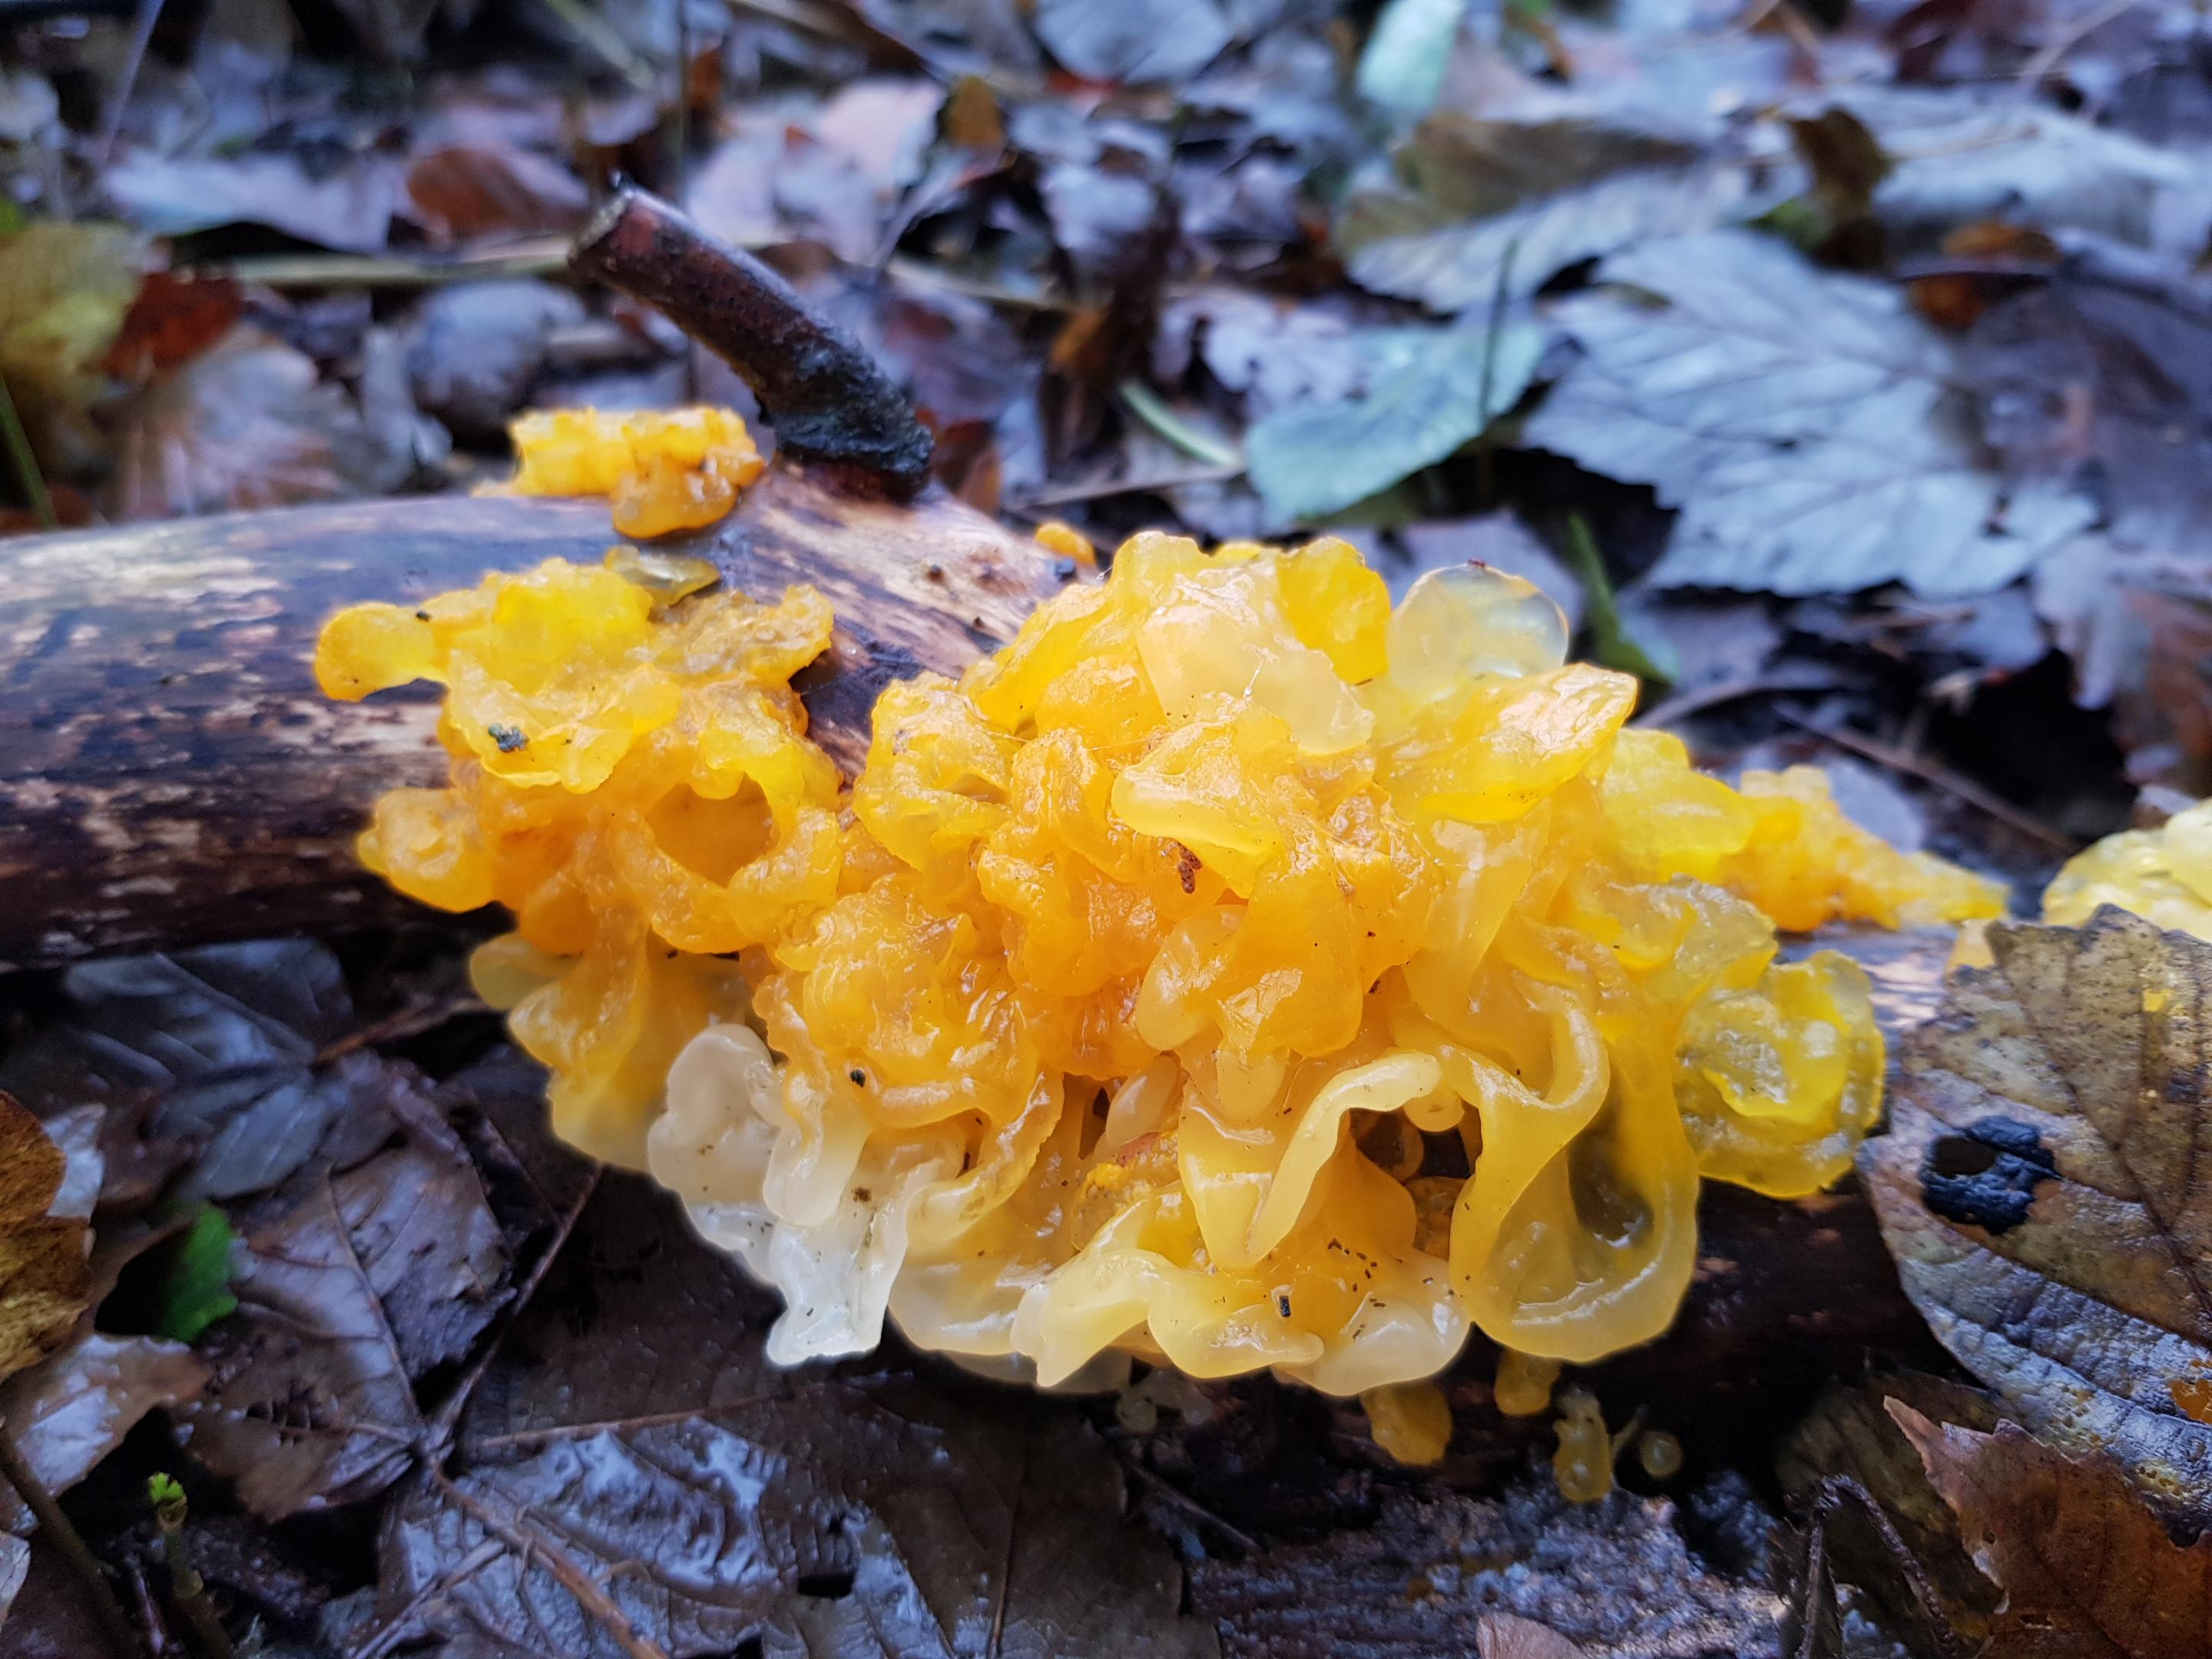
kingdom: Fungi
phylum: Basidiomycota
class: Tremellomycetes
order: Tremellales
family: Tremellaceae
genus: Tremella
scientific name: Tremella mesenterica
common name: gul bævresvamp
